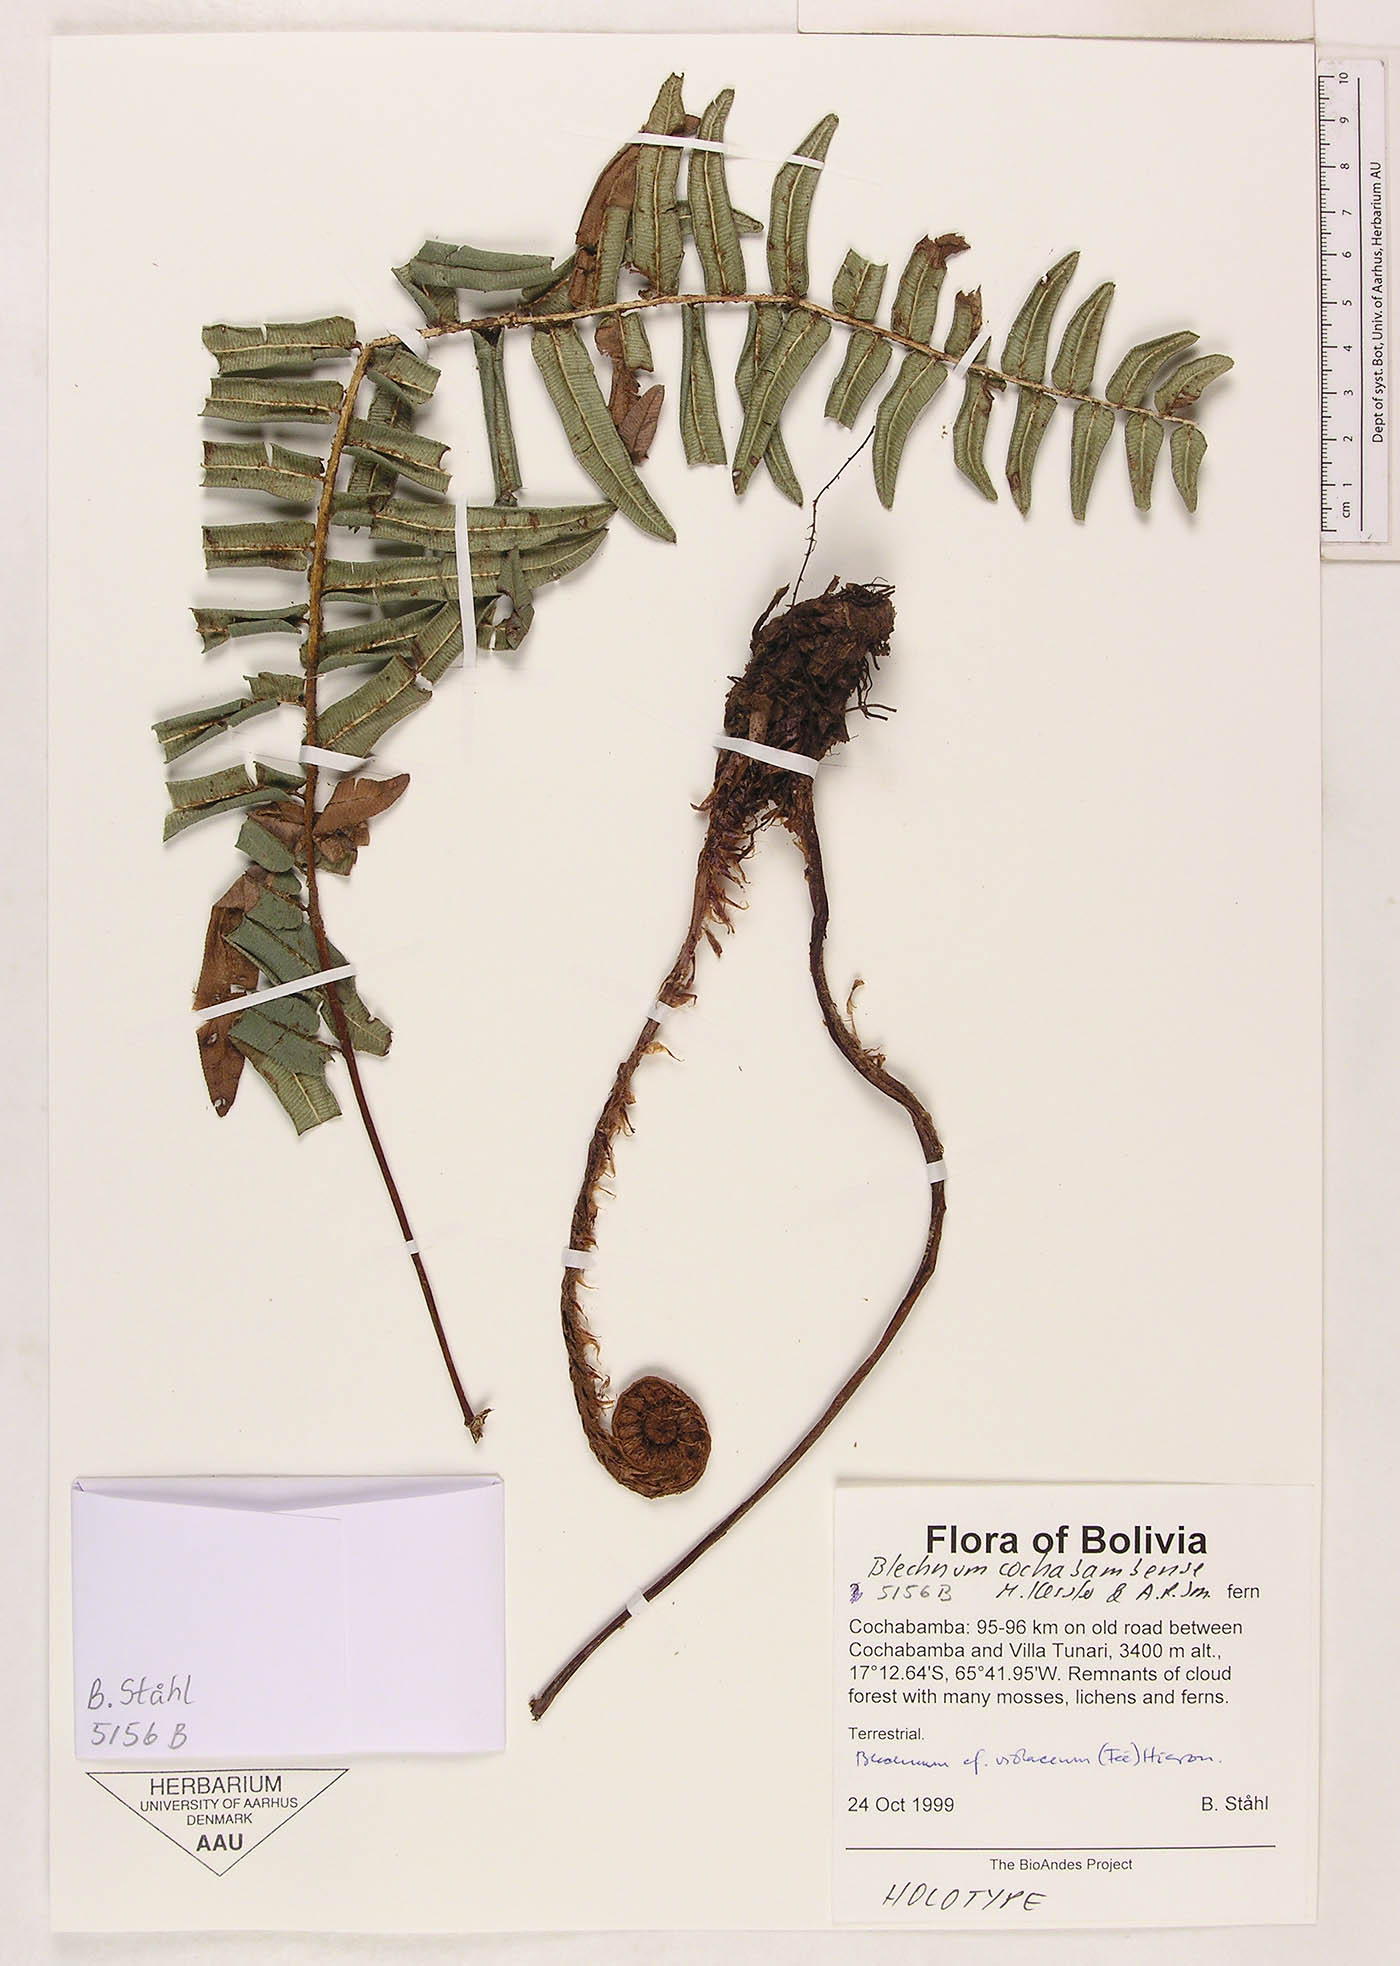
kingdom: Plantae
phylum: Tracheophyta
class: Polypodiopsida
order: Polypodiales
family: Blechnaceae
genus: Parablechnum
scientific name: Parablechnum cochabambense
